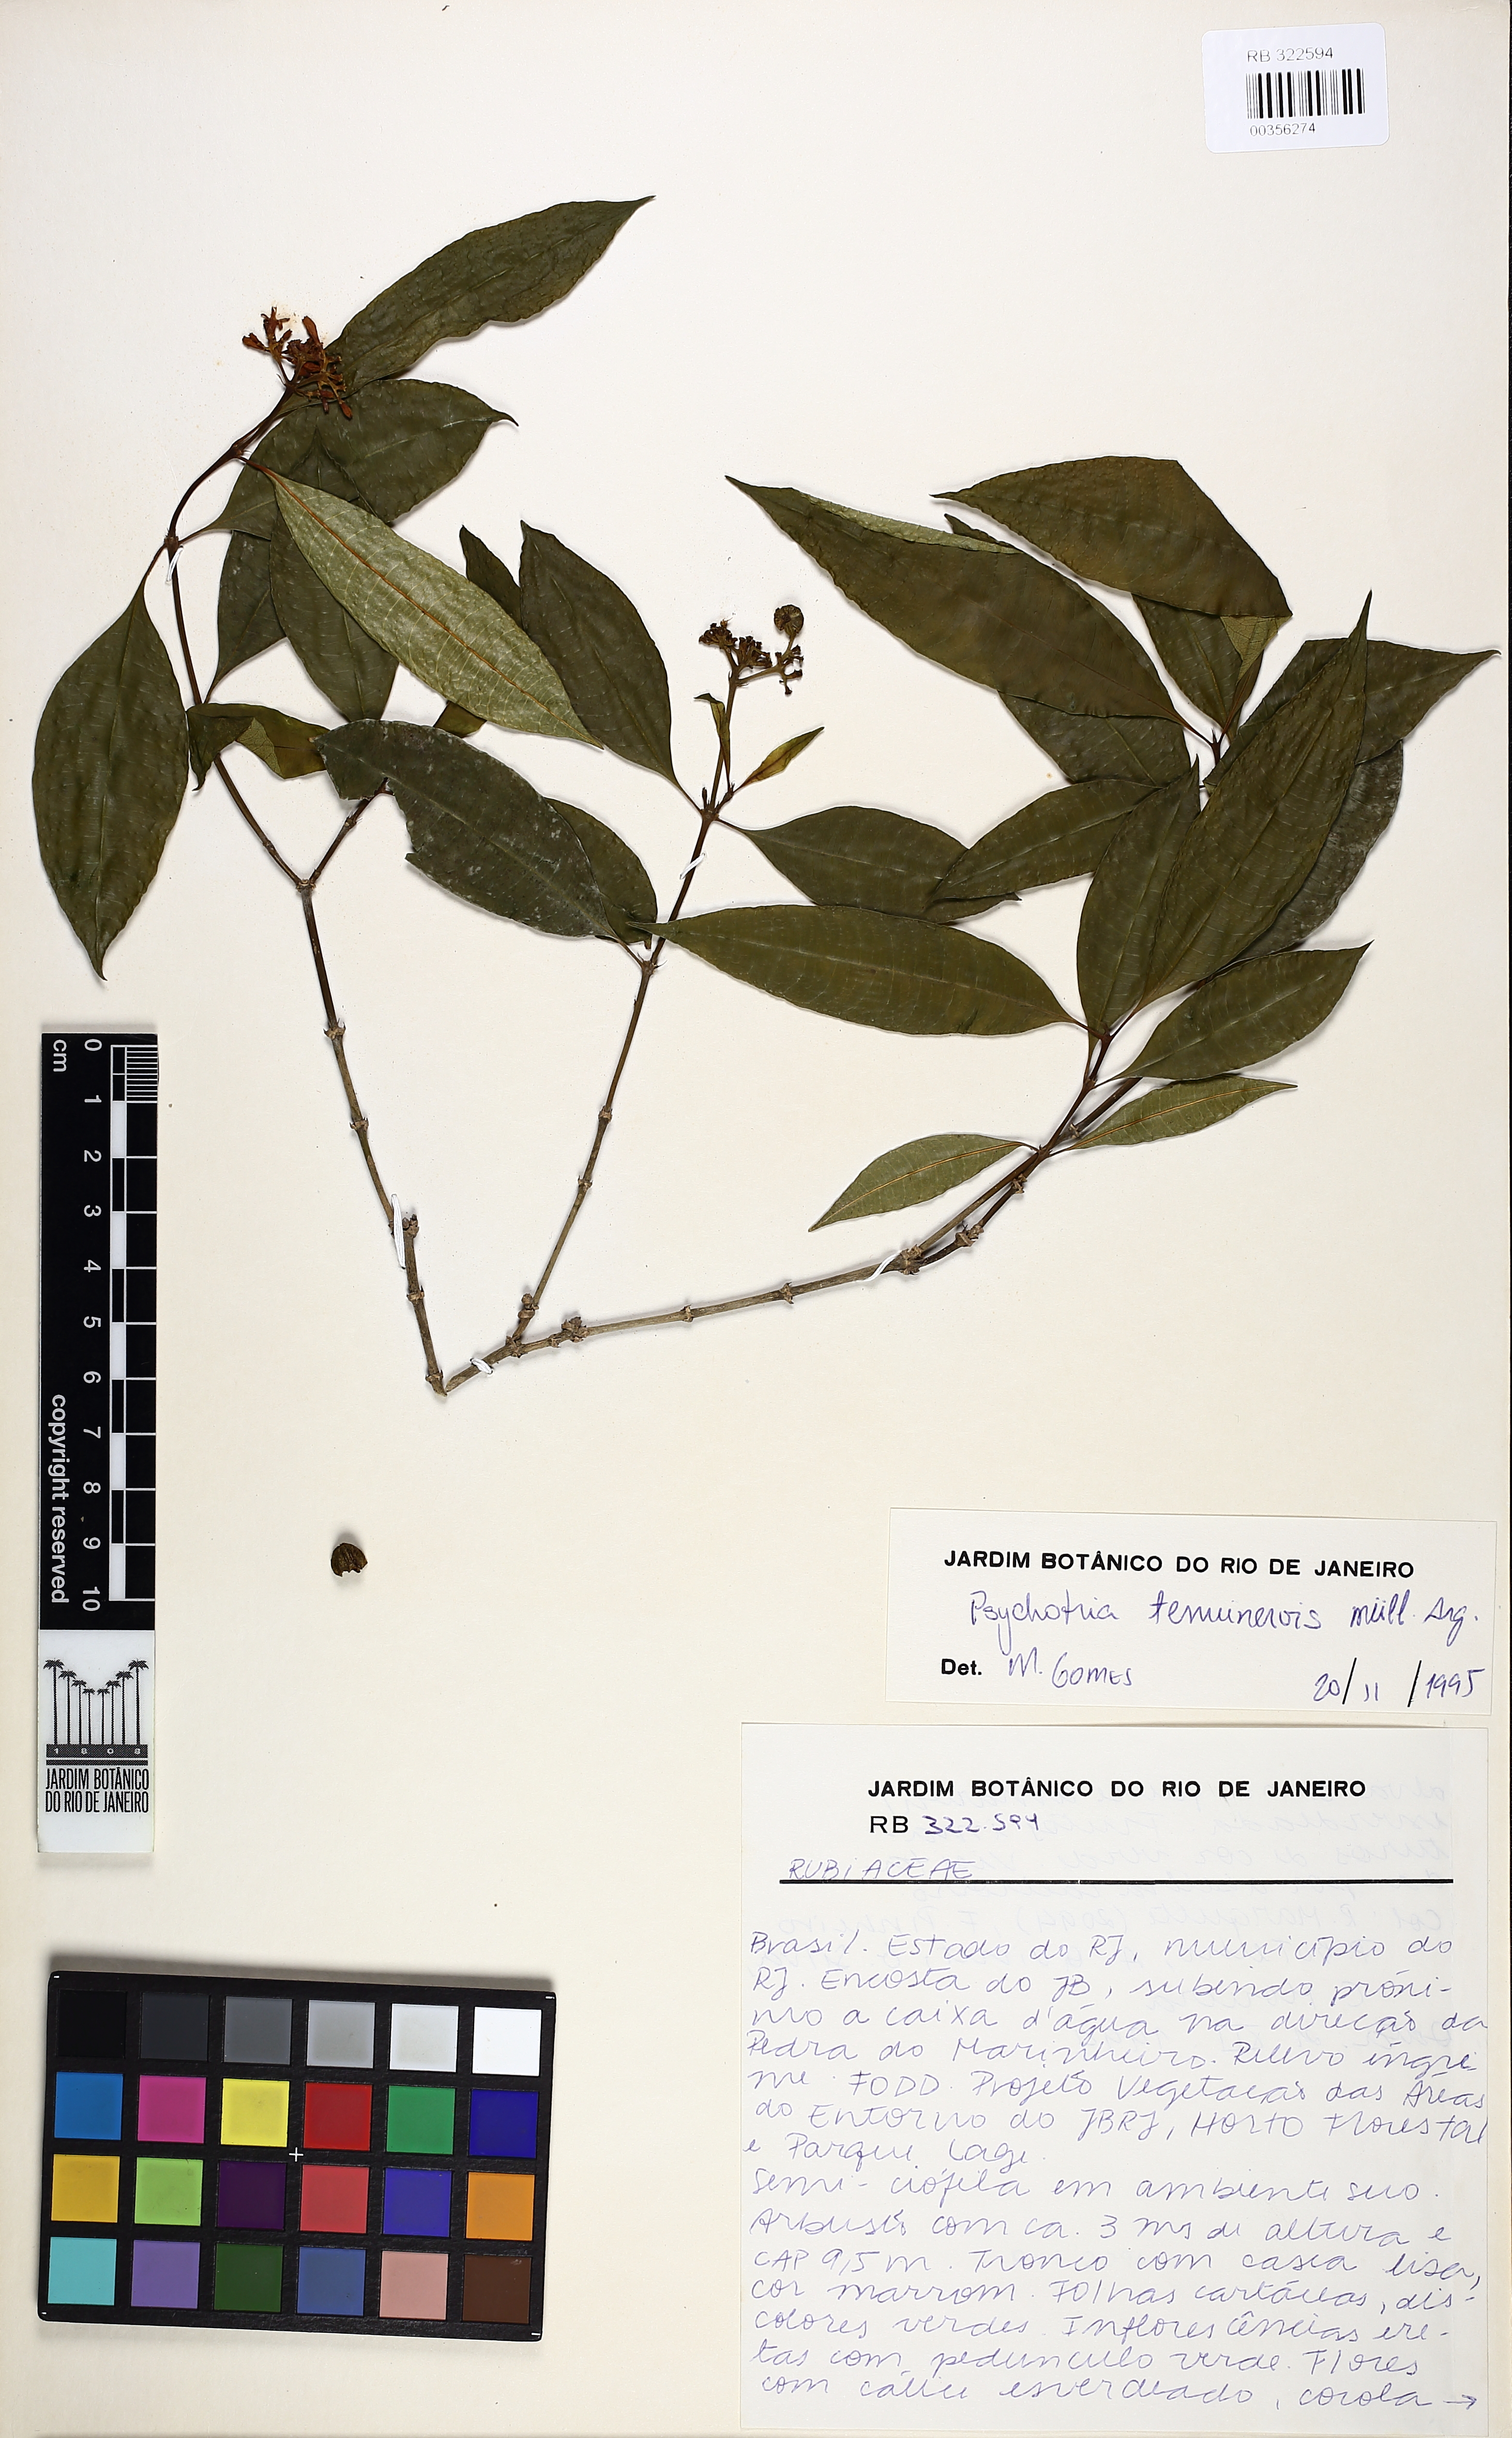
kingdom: Plantae
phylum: Tracheophyta
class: Magnoliopsida
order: Gentianales
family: Rubiaceae
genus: Psychotria
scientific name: Psychotria tenuinervis
